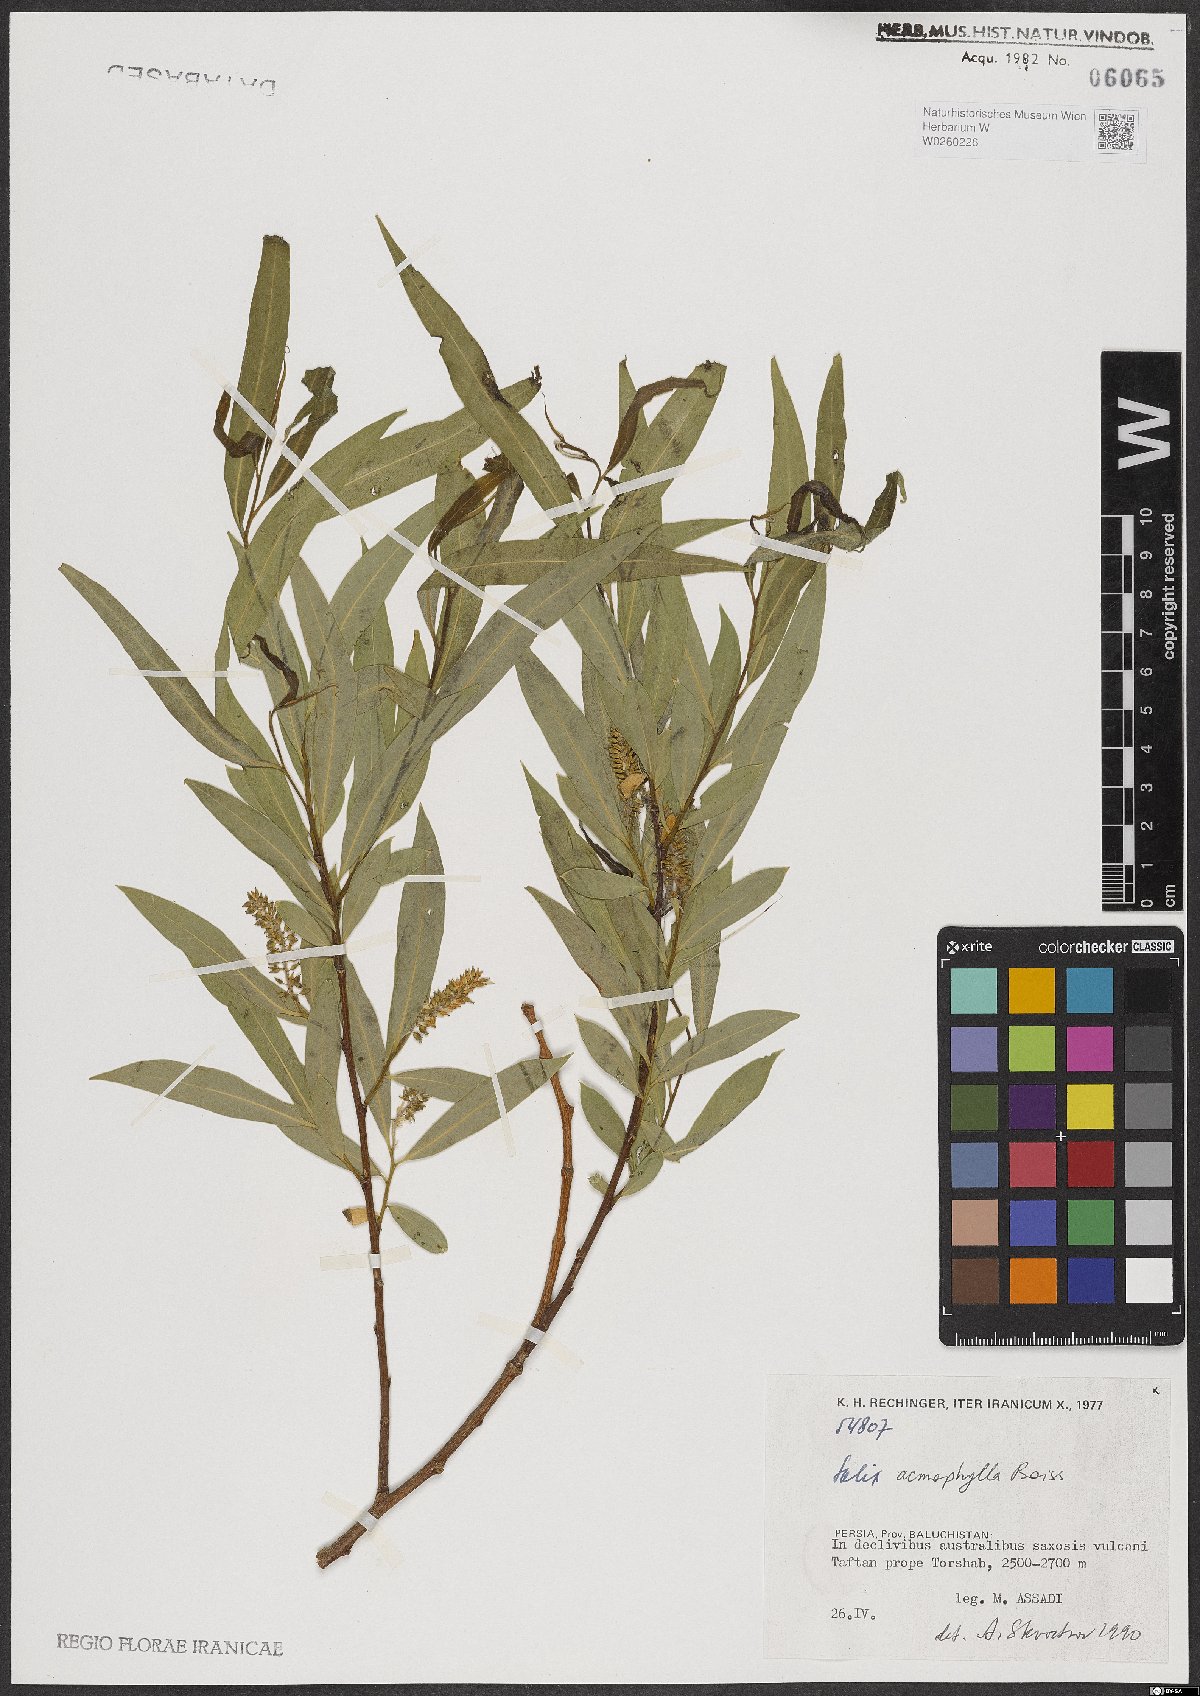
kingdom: Plantae
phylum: Tracheophyta
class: Magnoliopsida
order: Malpighiales
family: Salicaceae
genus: Salix
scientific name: Salix acmophylla
